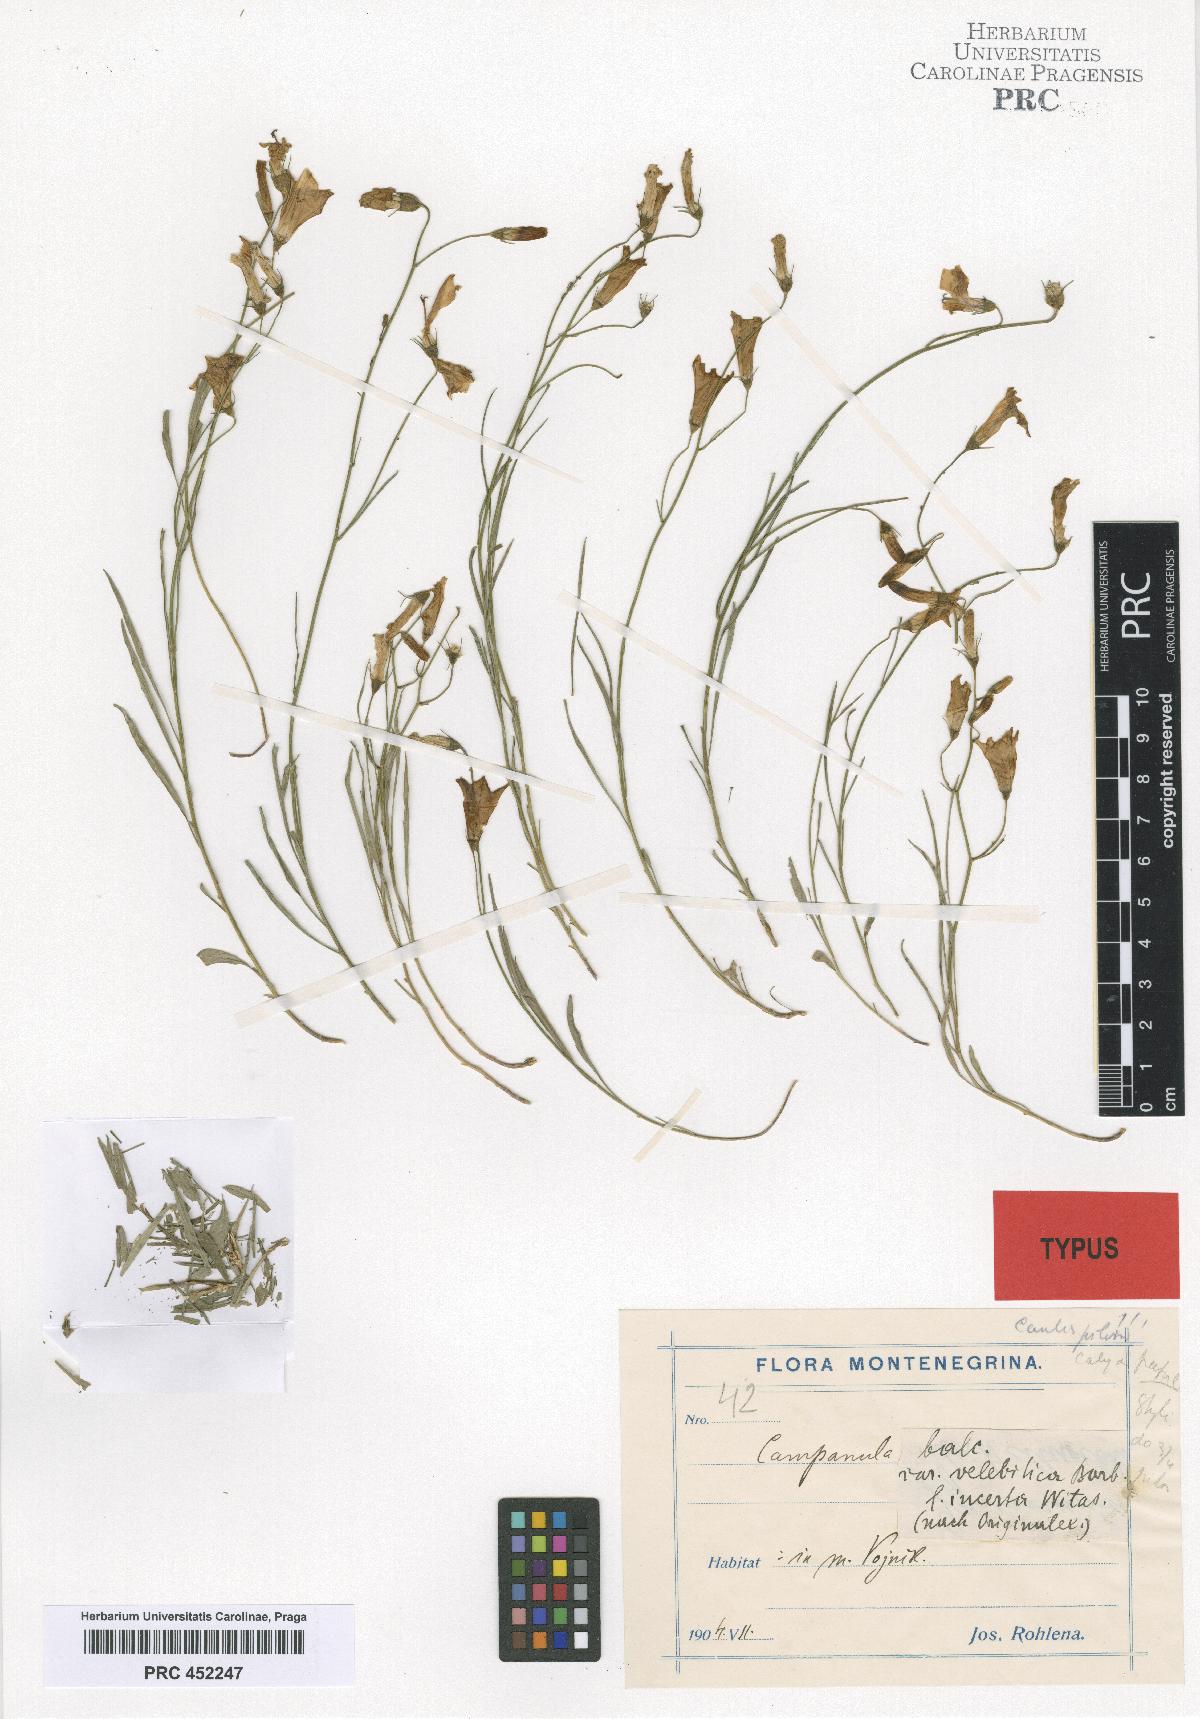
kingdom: Plantae
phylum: Tracheophyta
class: Magnoliopsida
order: Asterales
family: Campanulaceae
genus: Campanula
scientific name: Campanula velebitica
